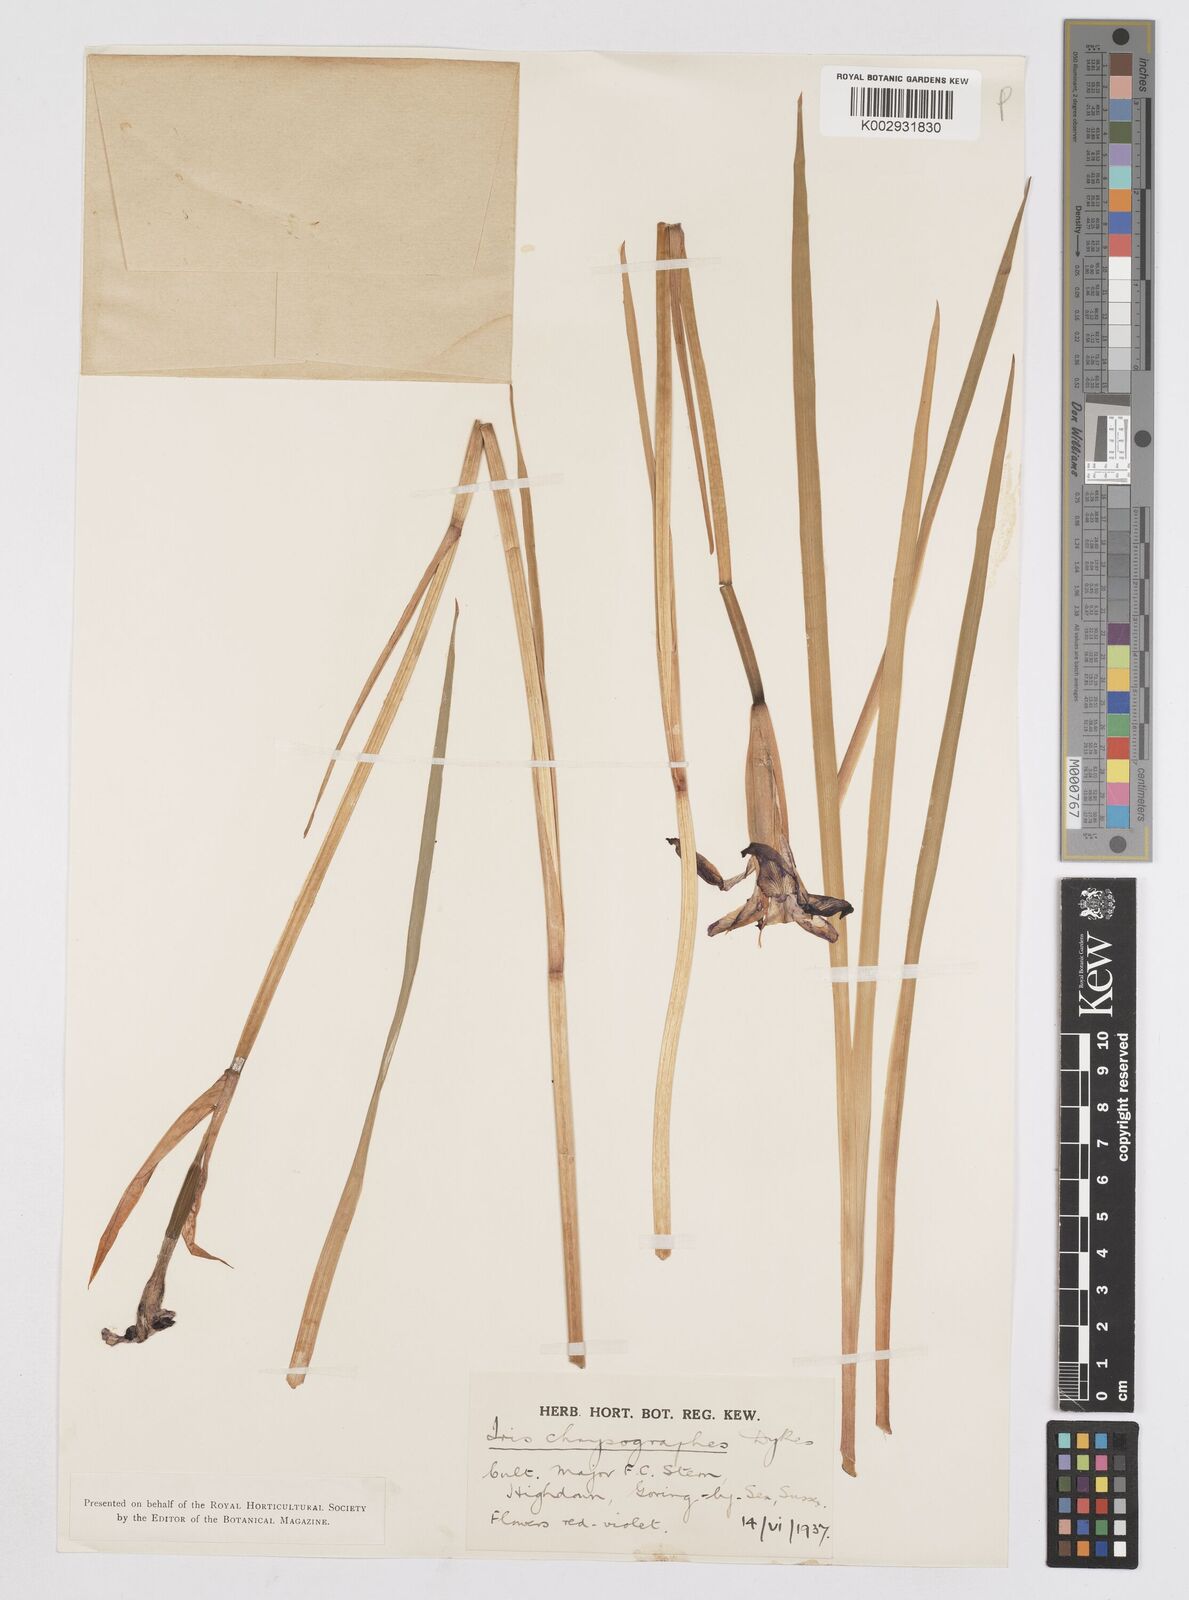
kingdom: Plantae
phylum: Tracheophyta
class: Liliopsida
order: Asparagales
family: Iridaceae
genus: Iris
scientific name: Iris chrysographes
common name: Gold-vein iris
